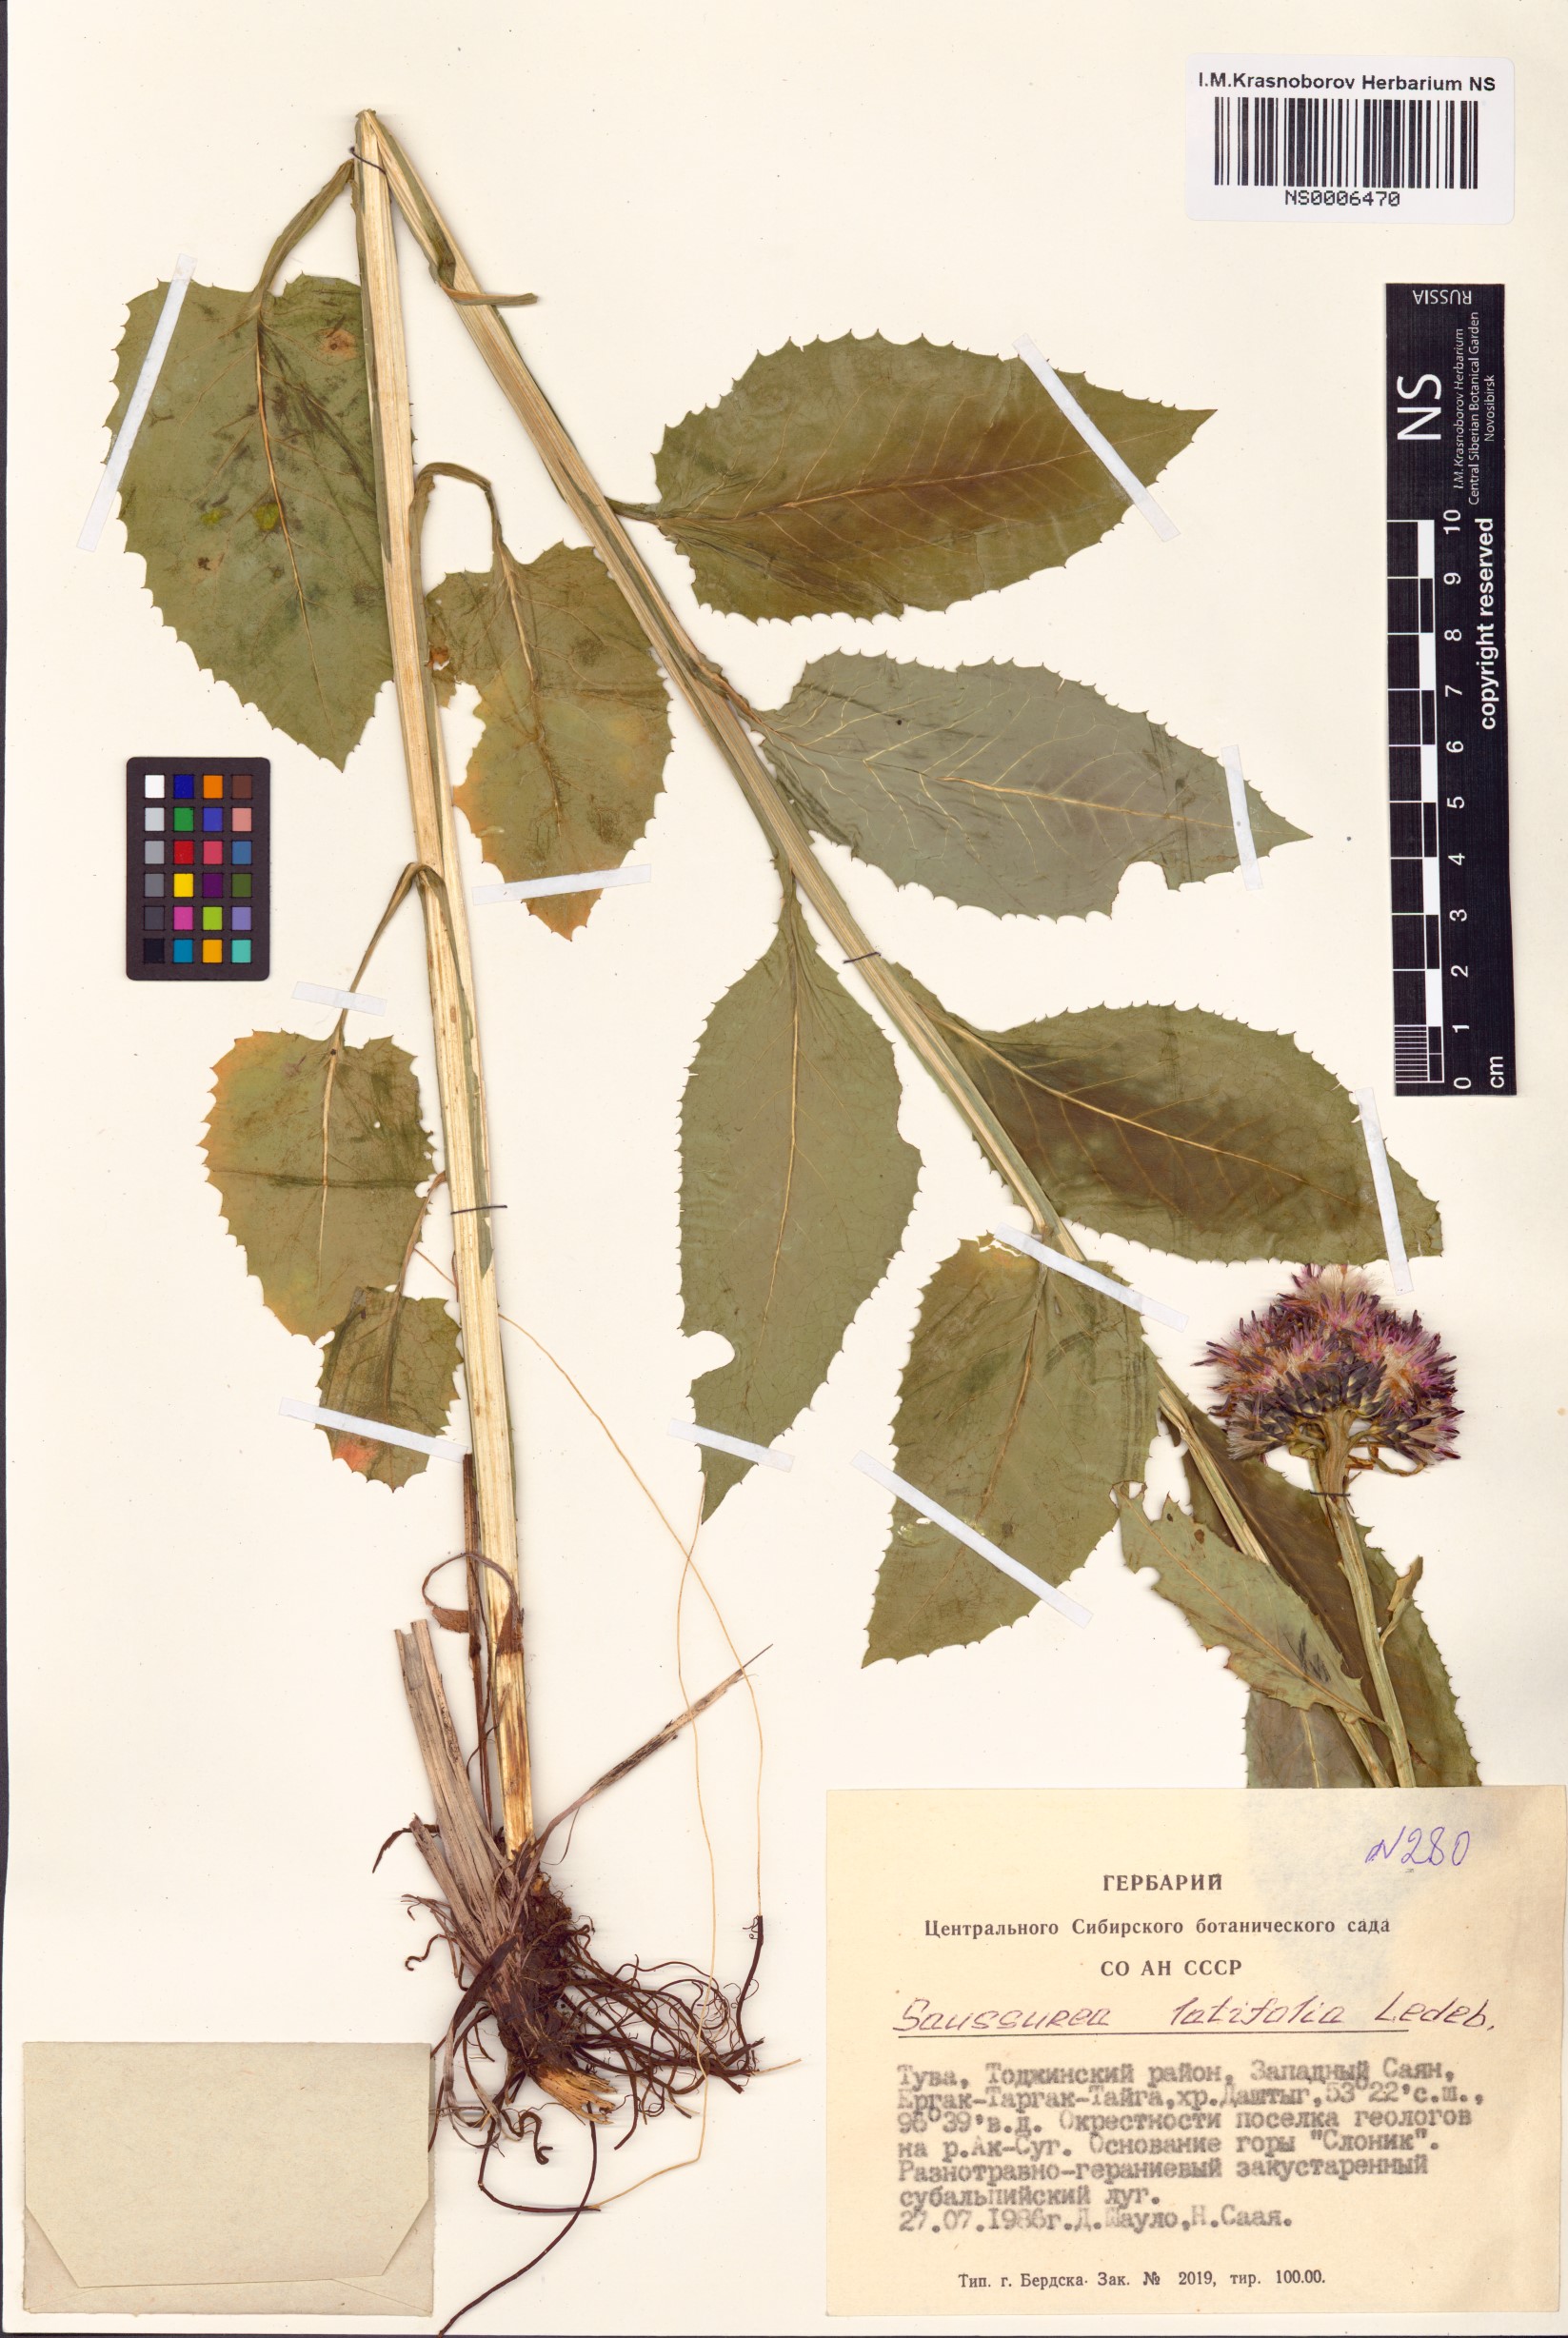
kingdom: Plantae
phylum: Tracheophyta
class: Magnoliopsida
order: Asterales
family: Asteraceae
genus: Saussurea
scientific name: Saussurea latifolia
